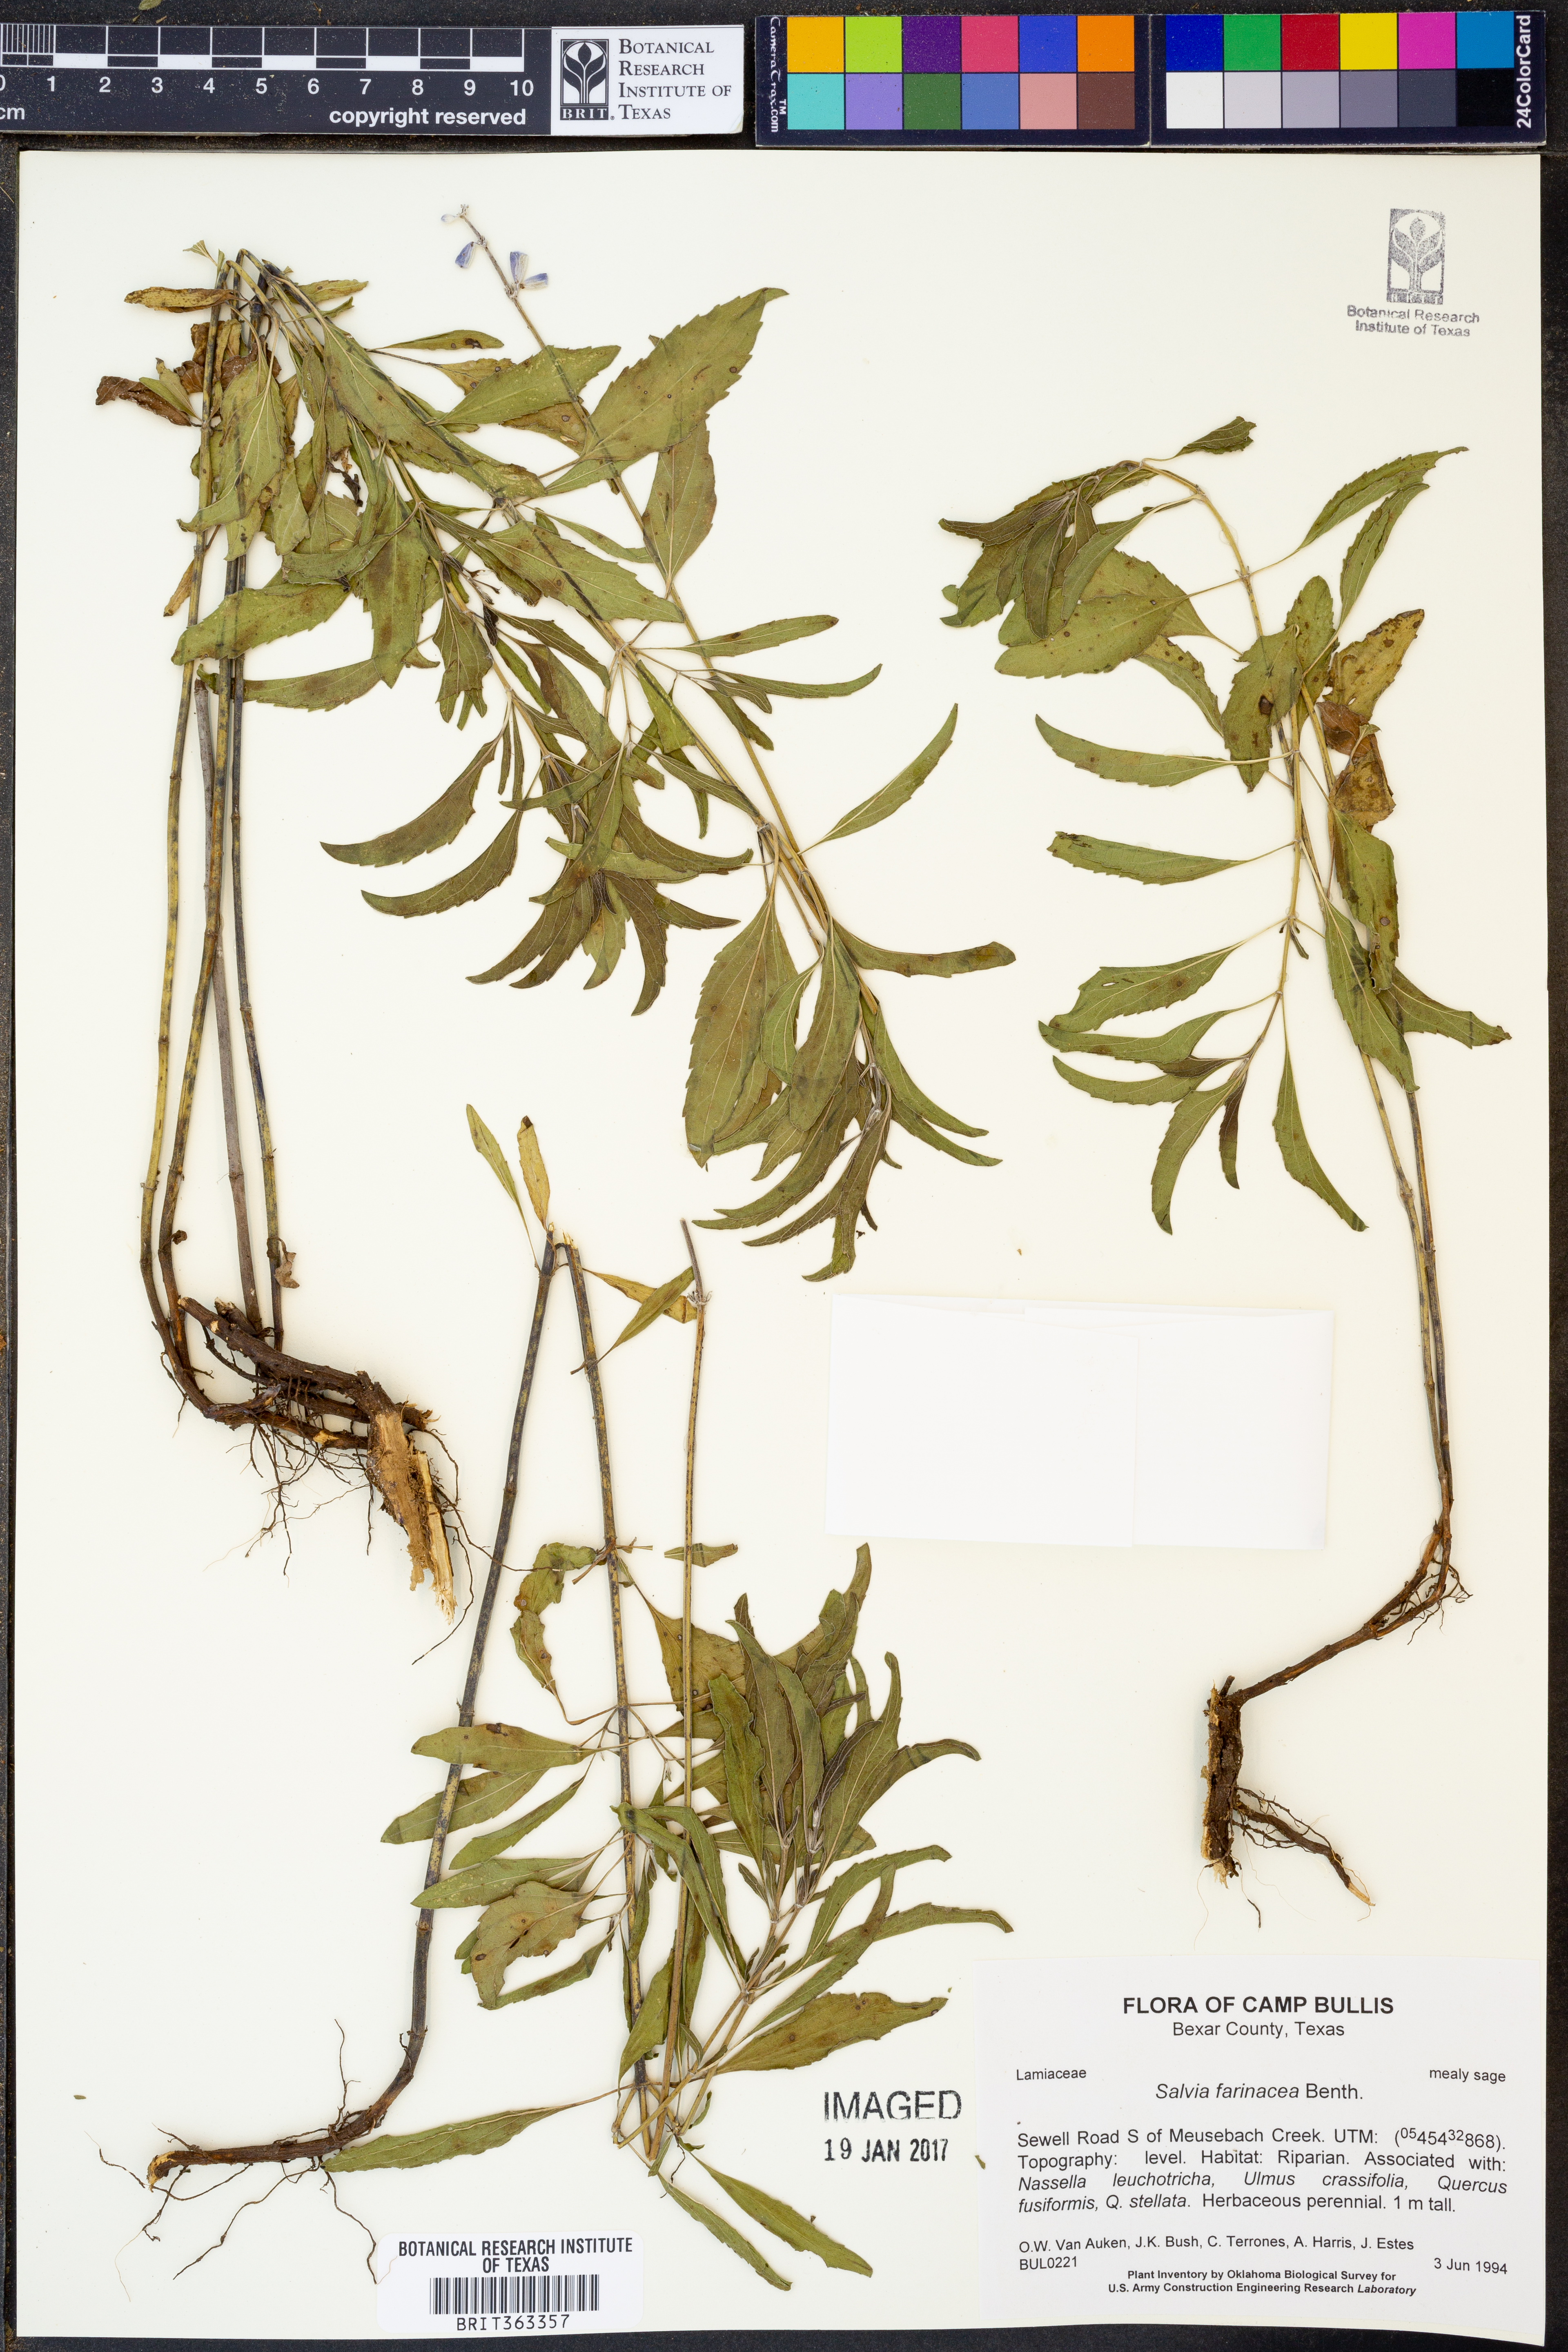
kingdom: Plantae
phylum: Tracheophyta
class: Magnoliopsida
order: Lamiales
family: Lamiaceae
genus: Salvia
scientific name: Salvia farinacea
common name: Mealy sage
